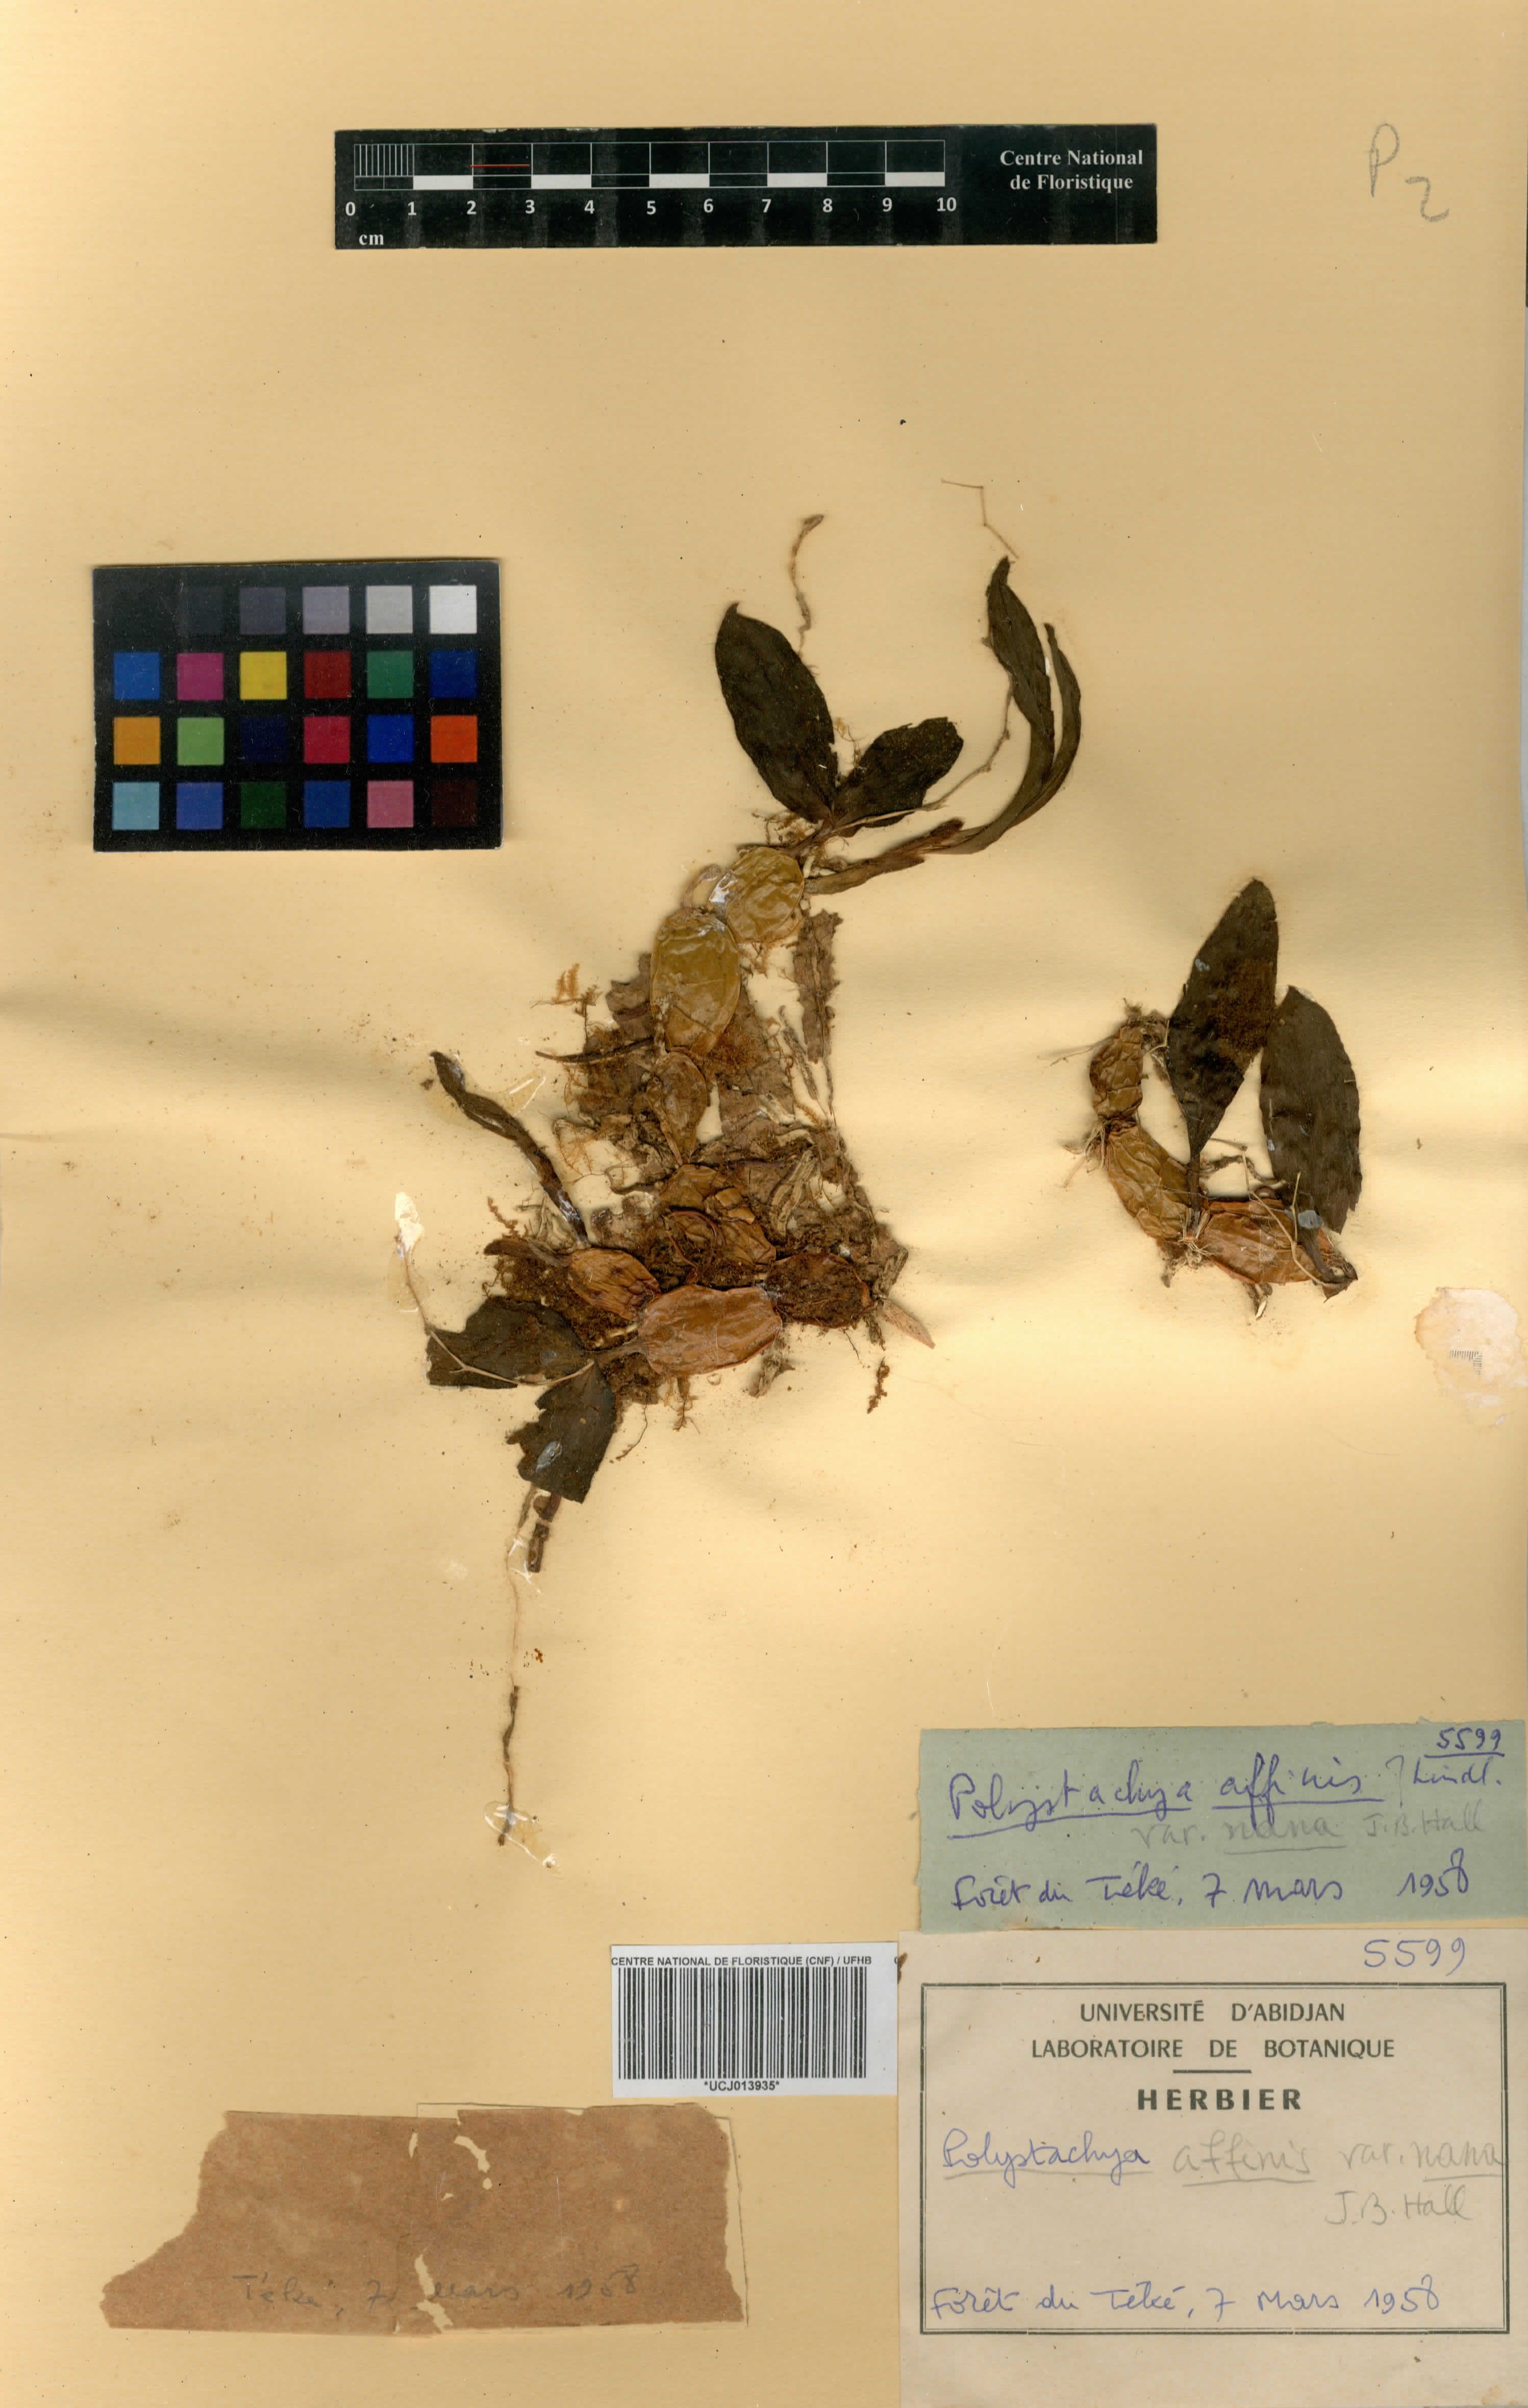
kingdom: Plantae
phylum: Tracheophyta
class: Liliopsida
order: Asparagales
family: Orchidaceae
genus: Polystachya
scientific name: Polystachya bancoensis
